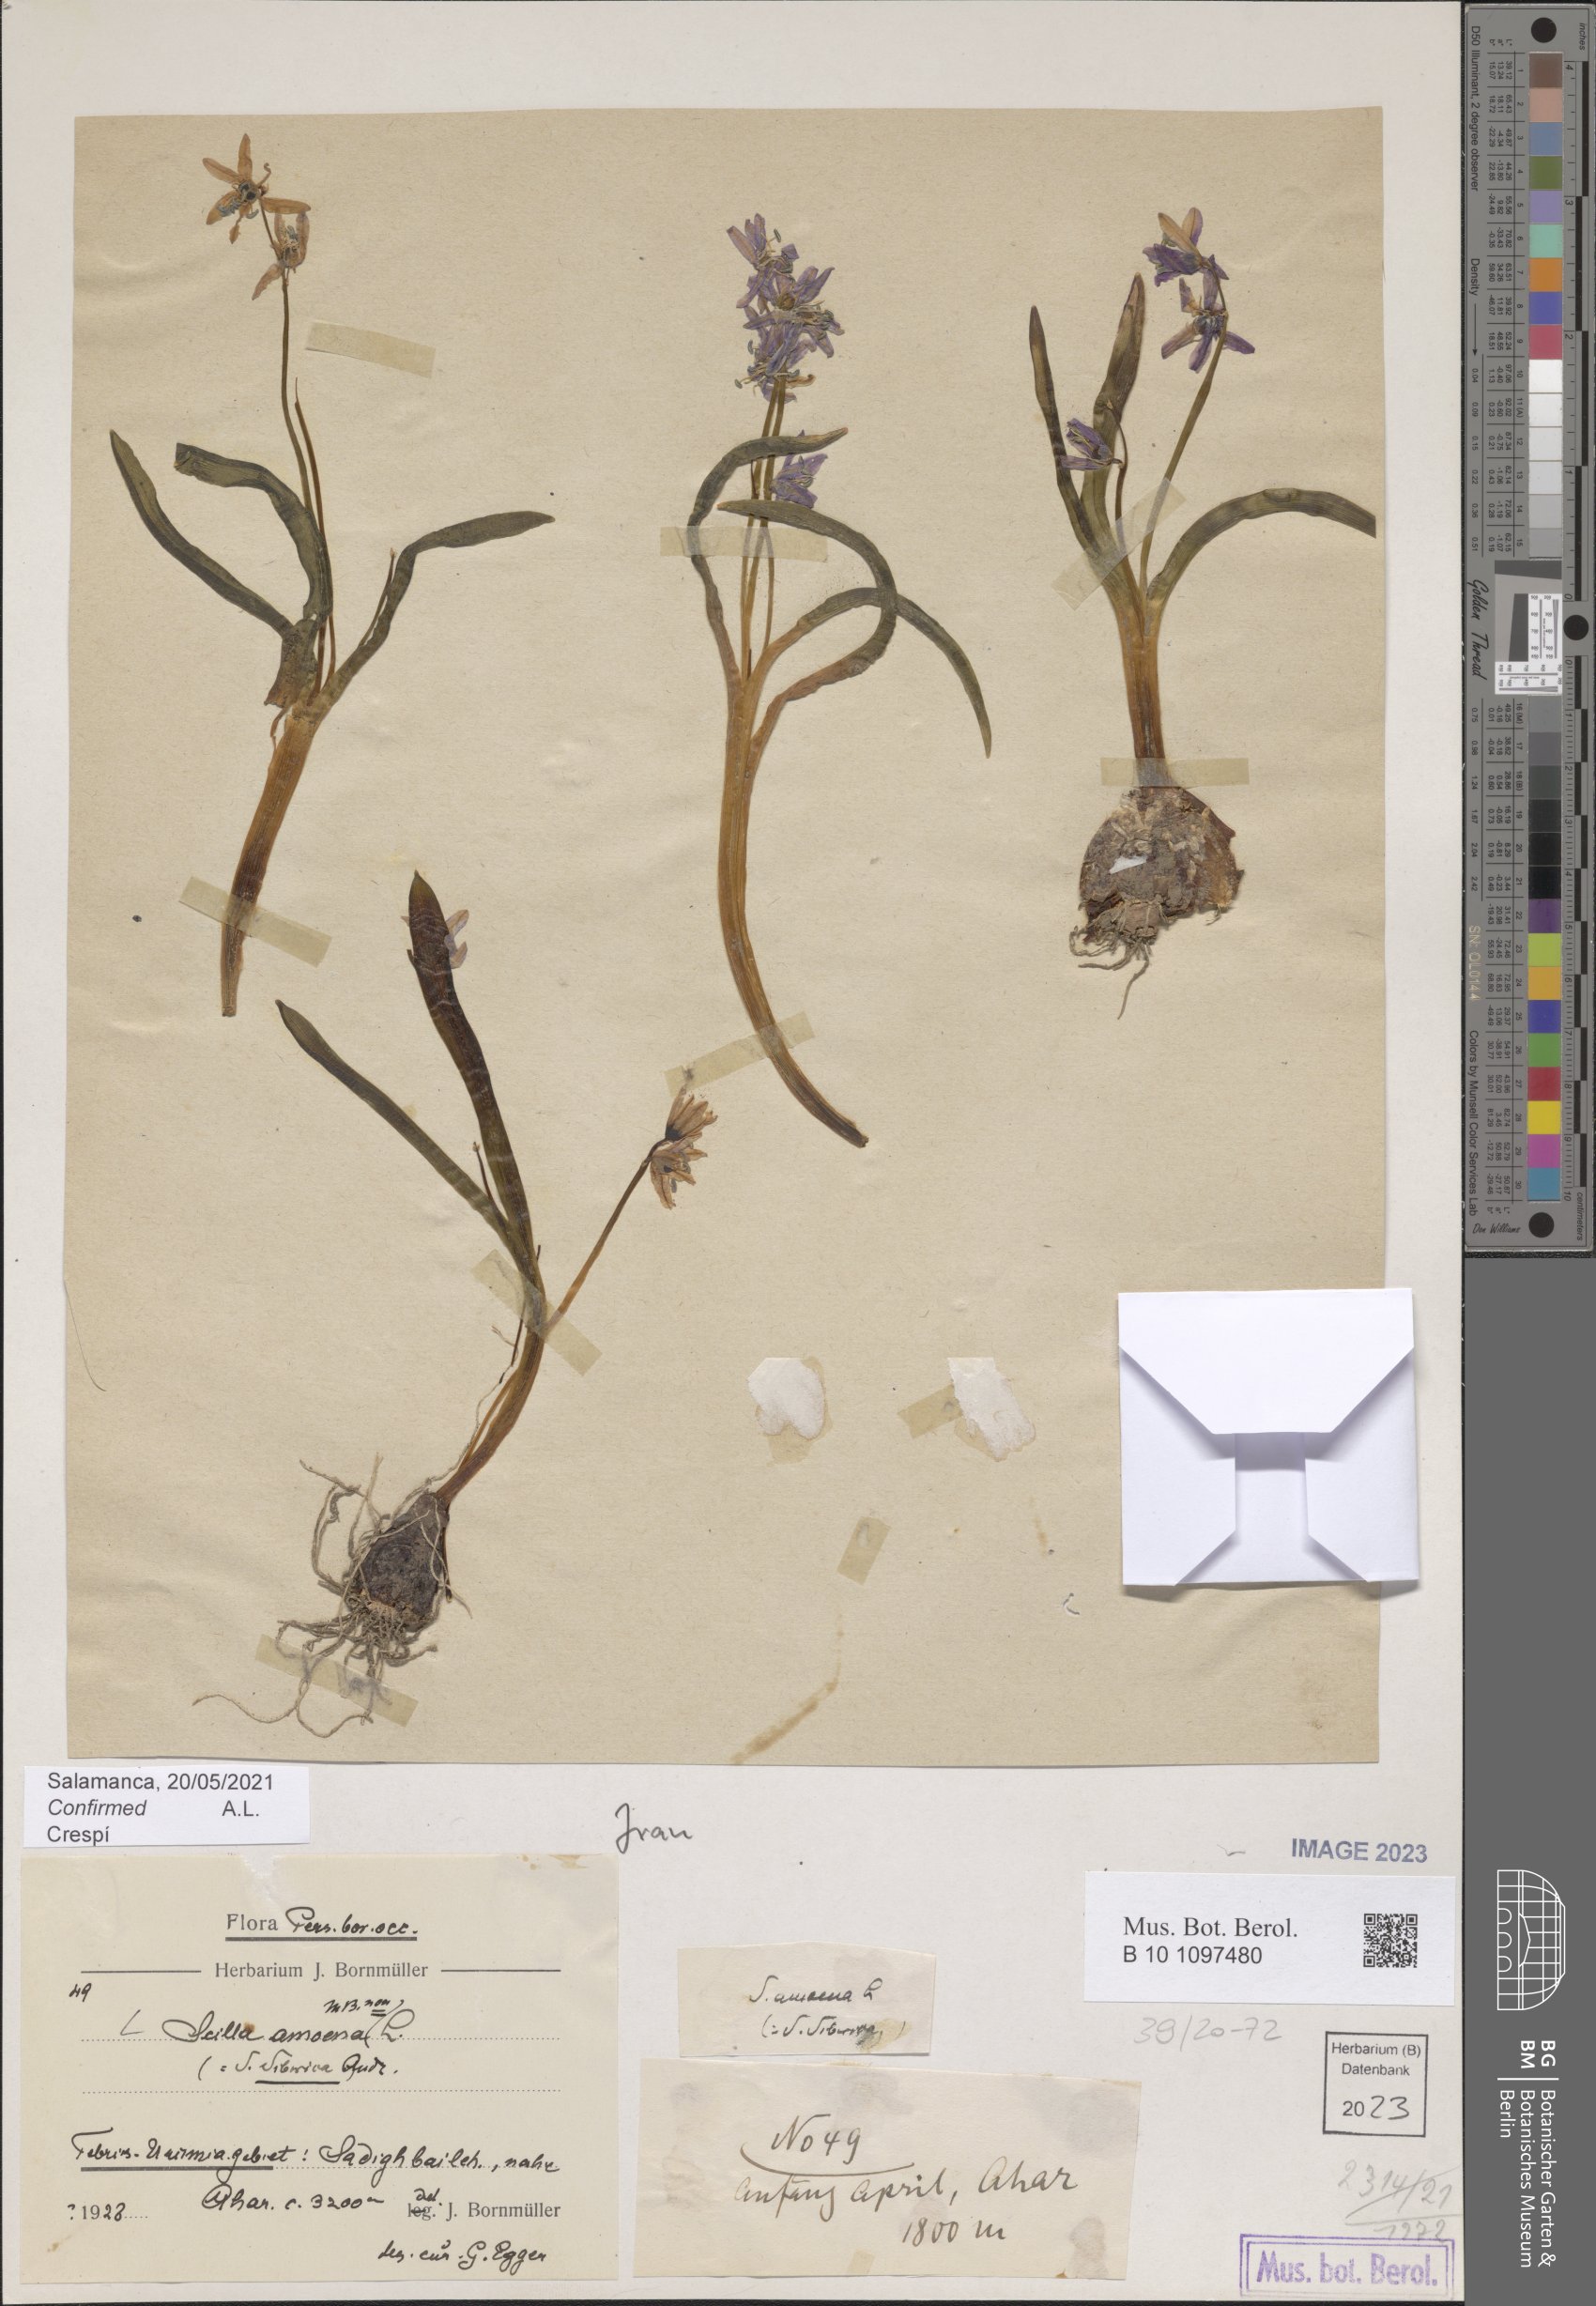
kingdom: Plantae
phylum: Tracheophyta
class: Liliopsida
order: Asparagales
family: Asparagaceae
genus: Scilla
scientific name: Scilla amoena
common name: Star-hyacinth
